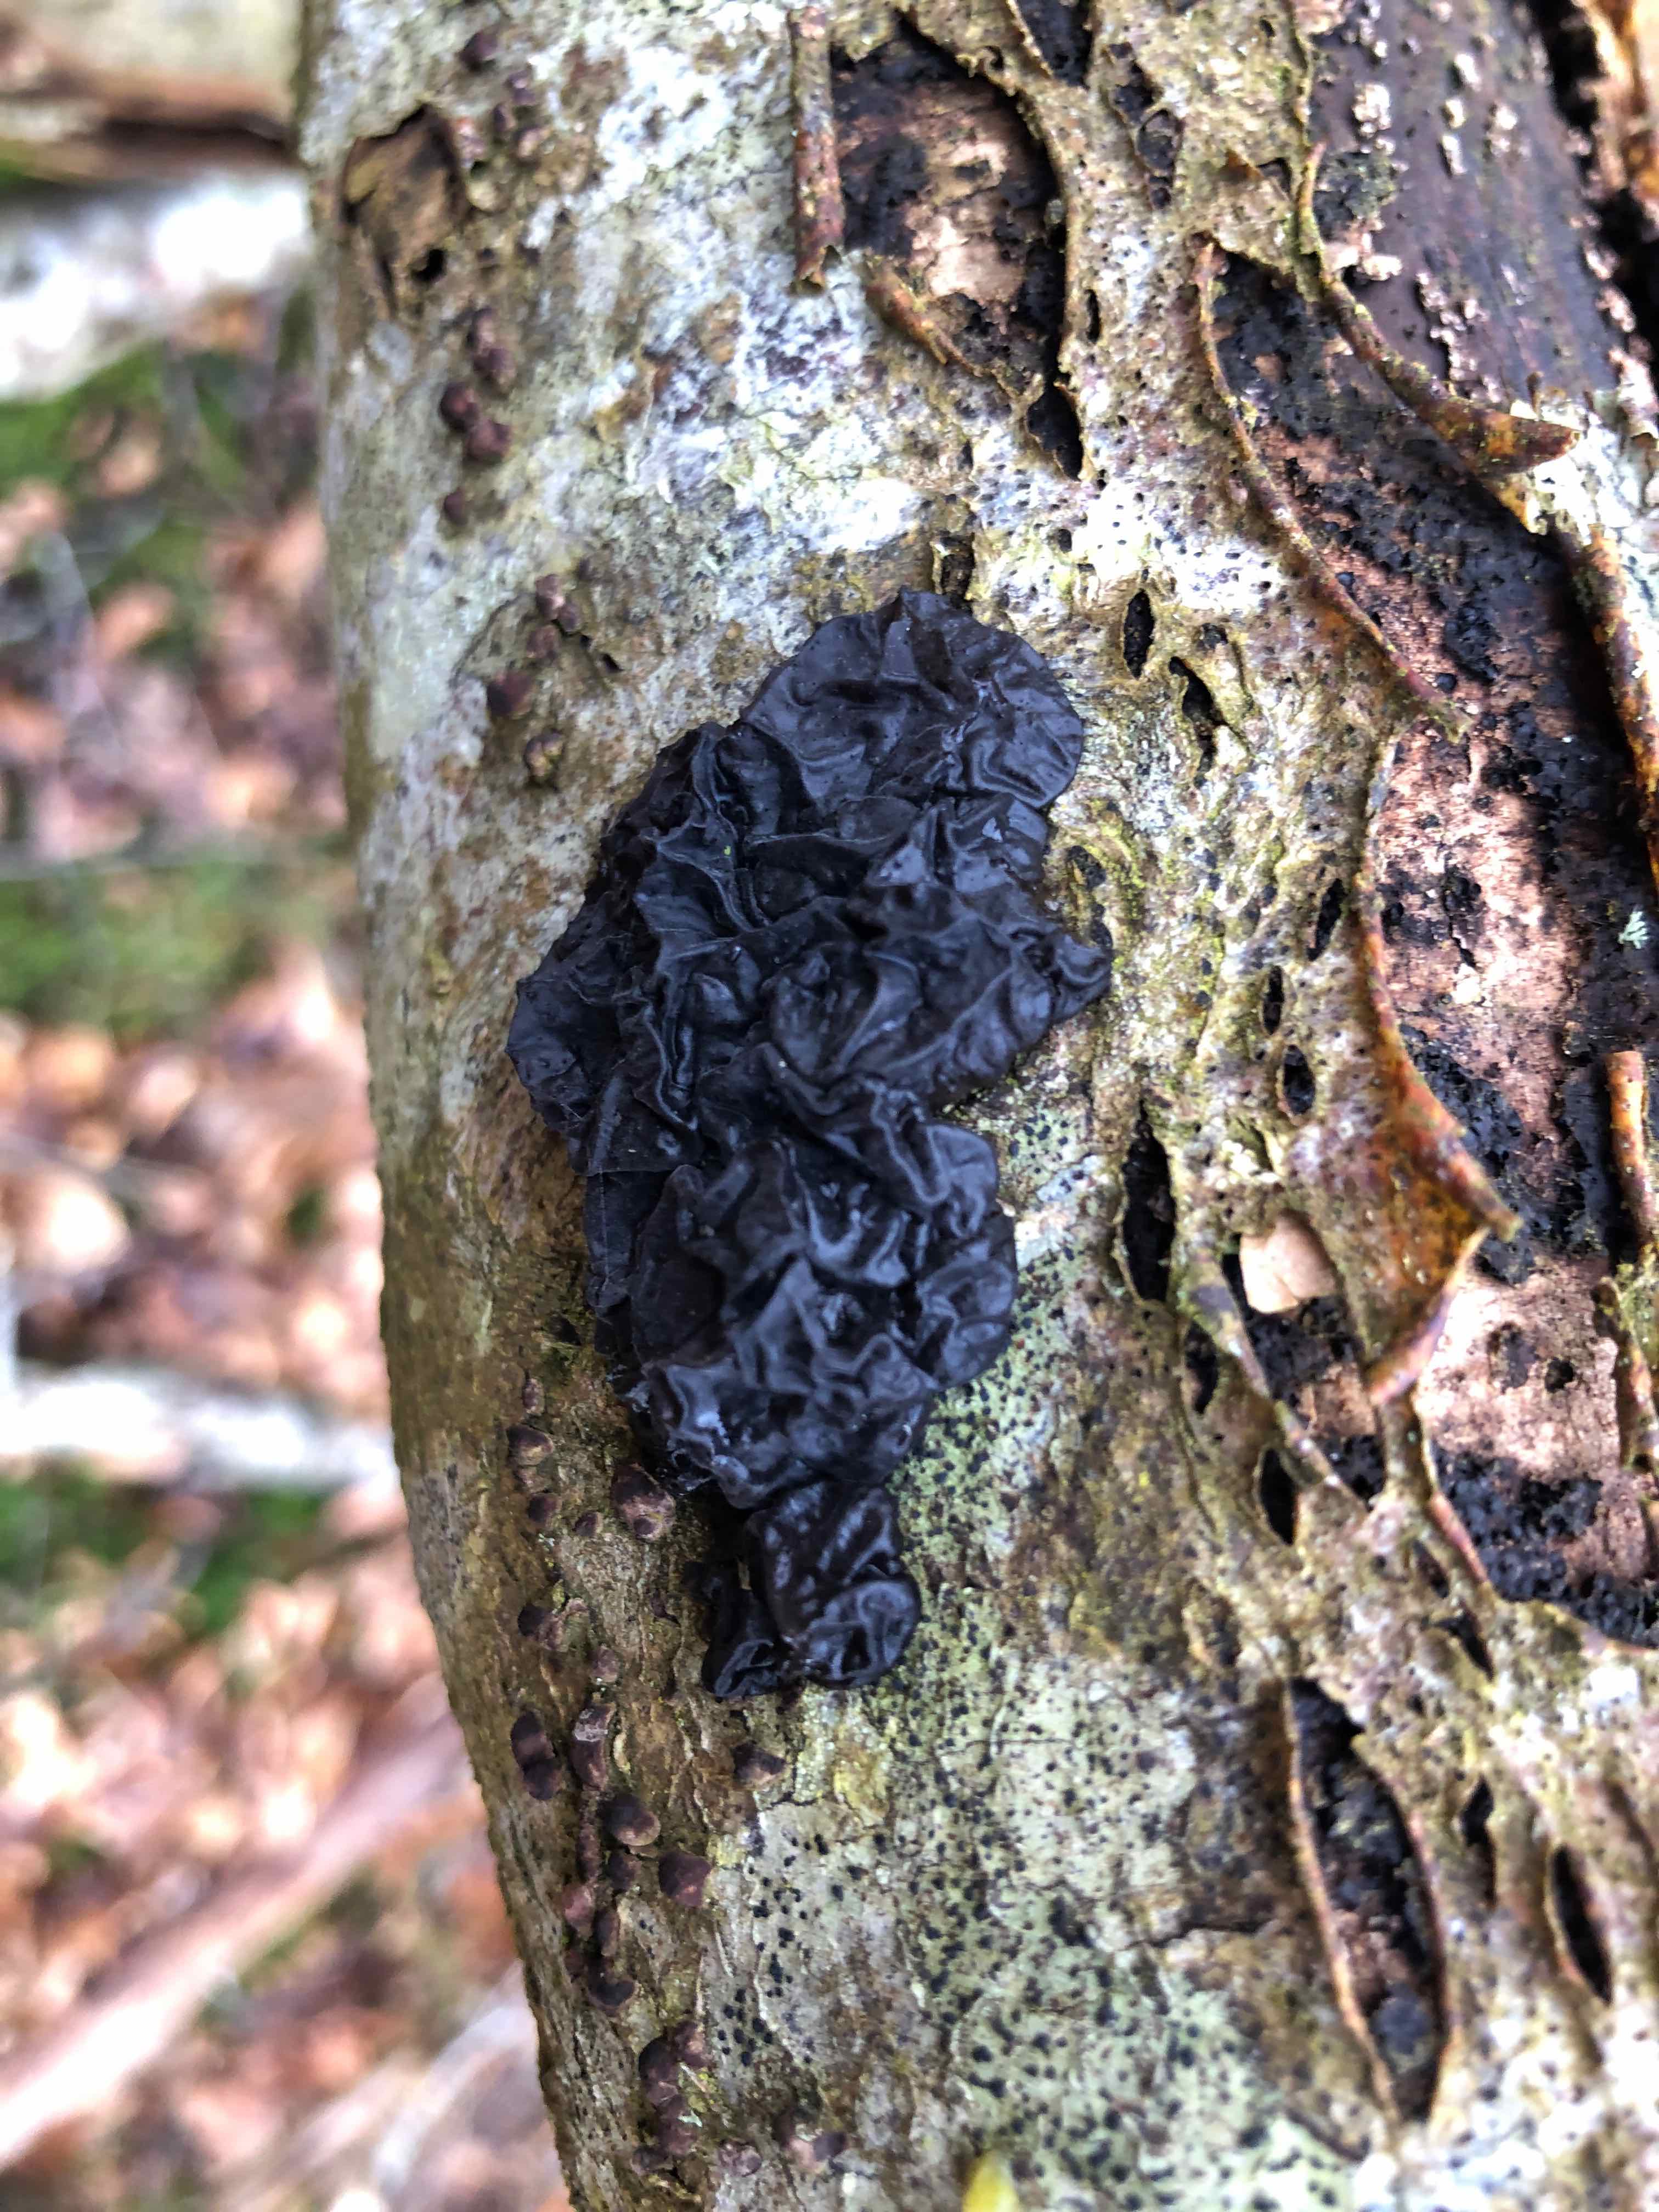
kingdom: Fungi
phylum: Basidiomycota
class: Agaricomycetes
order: Auriculariales
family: Auriculariaceae
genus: Exidia
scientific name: Exidia nigricans
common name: almindelig bævretop
